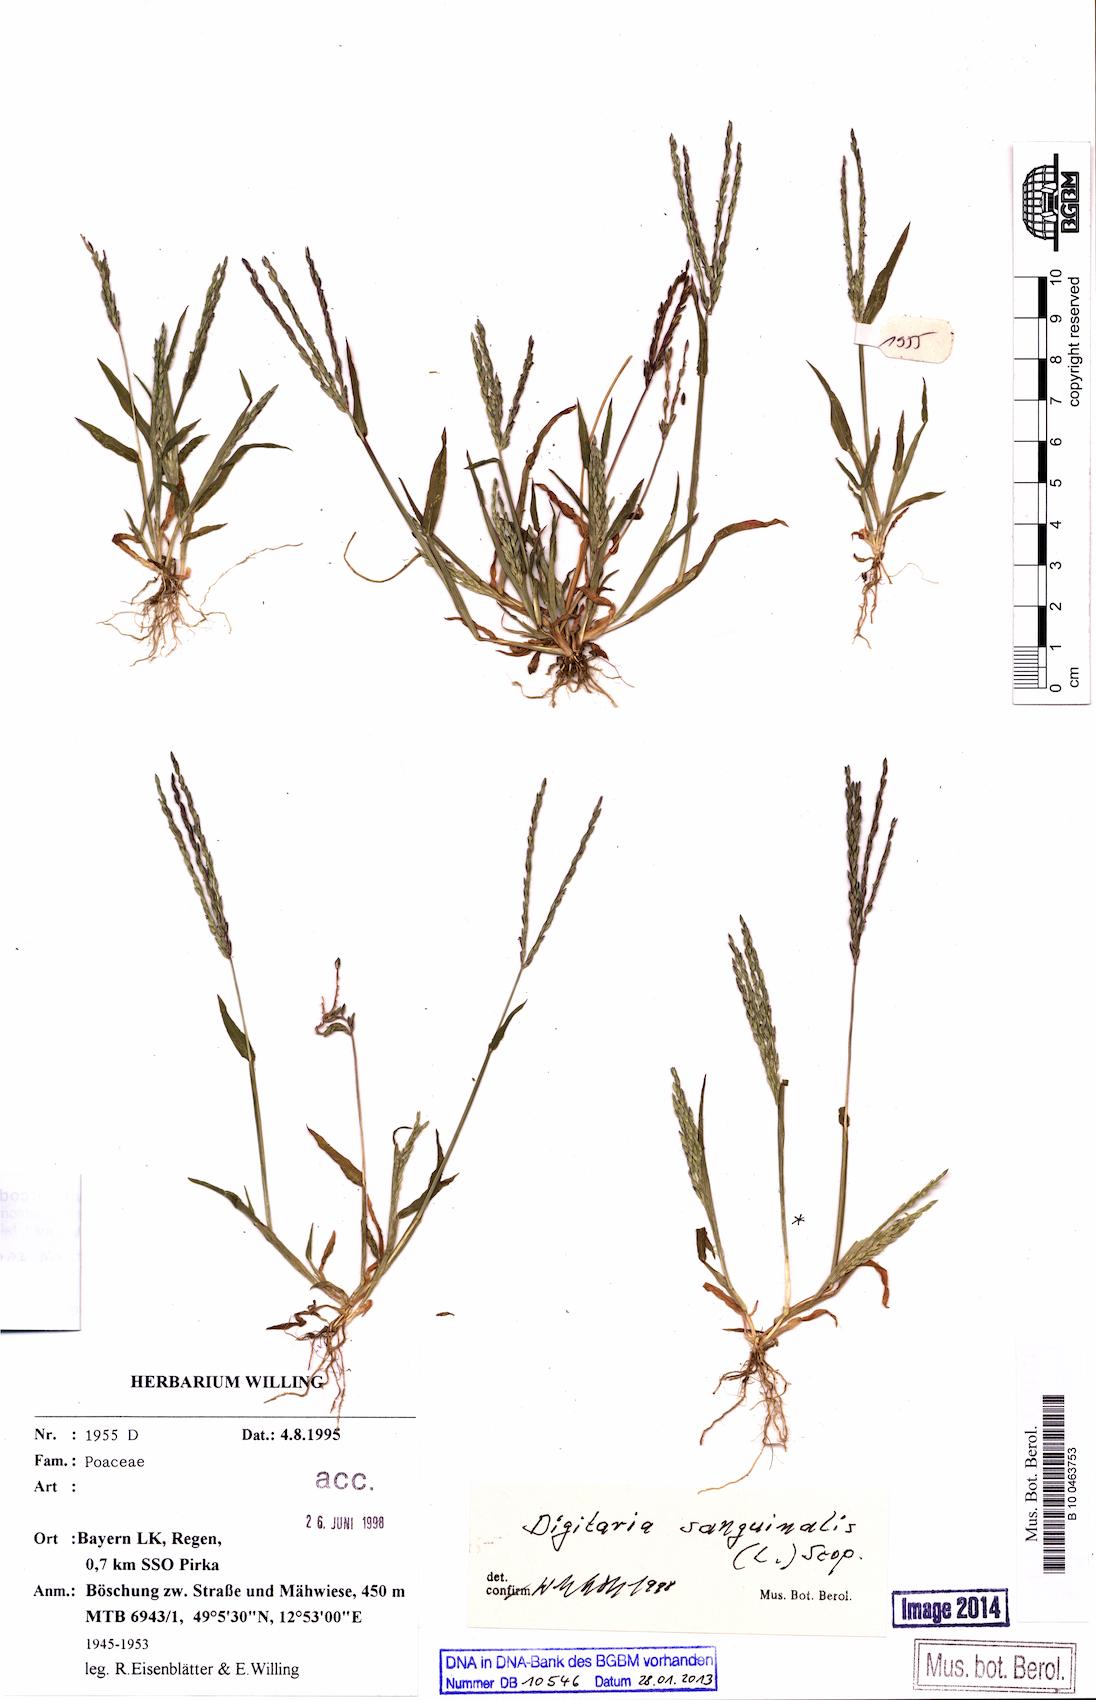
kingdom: Plantae
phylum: Tracheophyta
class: Liliopsida
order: Poales
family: Poaceae
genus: Digitaria
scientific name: Digitaria sanguinalis
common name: Hairy crabgrass
